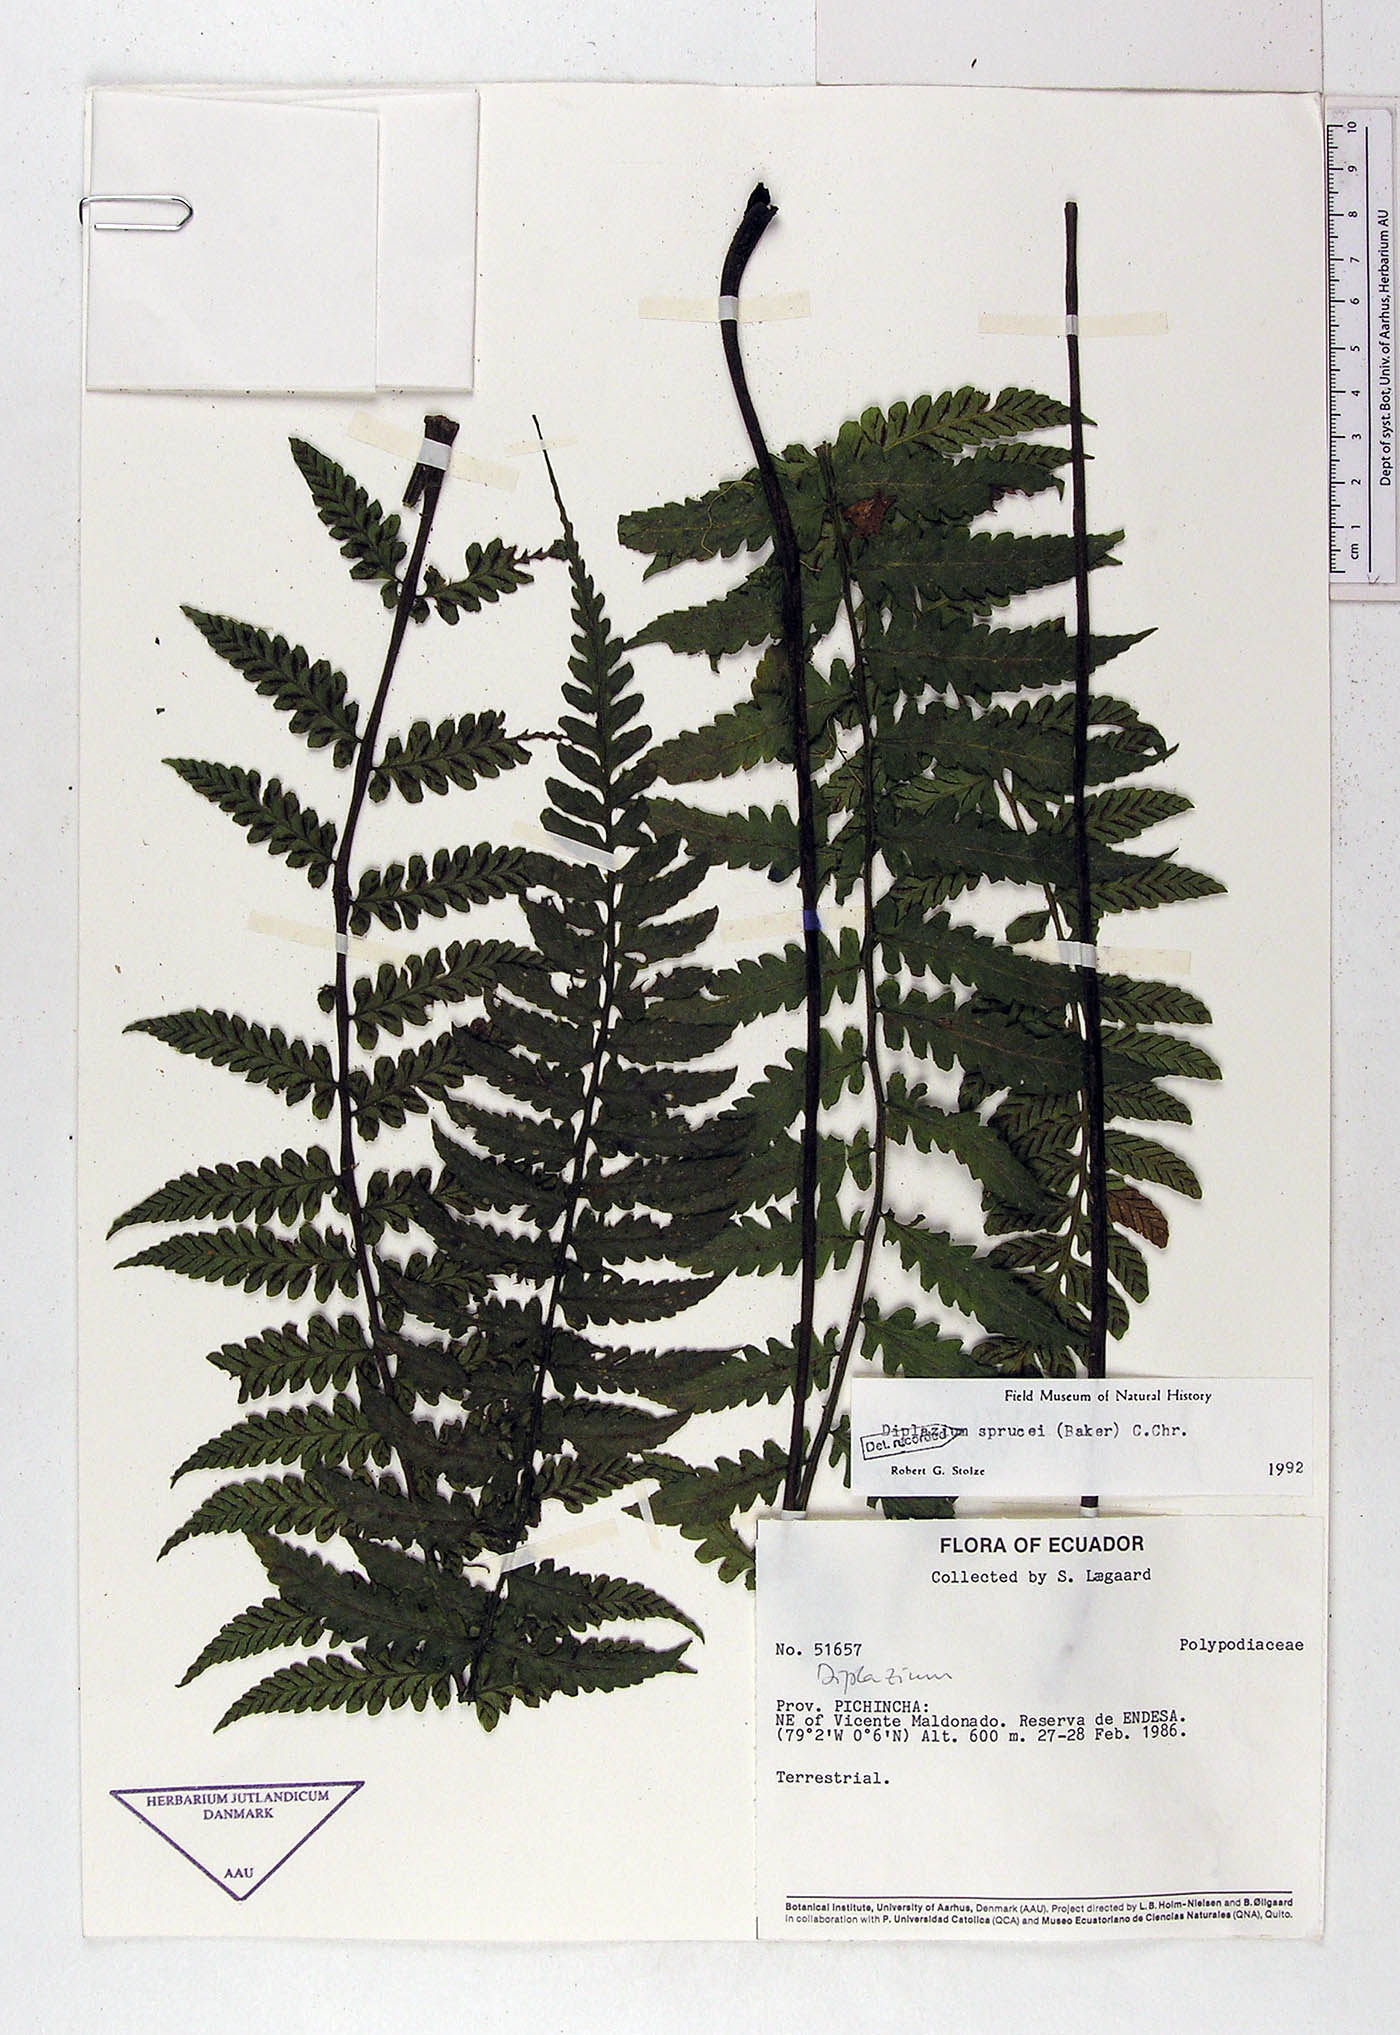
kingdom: Plantae
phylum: Tracheophyta
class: Polypodiopsida
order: Polypodiales
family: Athyriaceae
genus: Diplazium
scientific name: Diplazium sprucei
